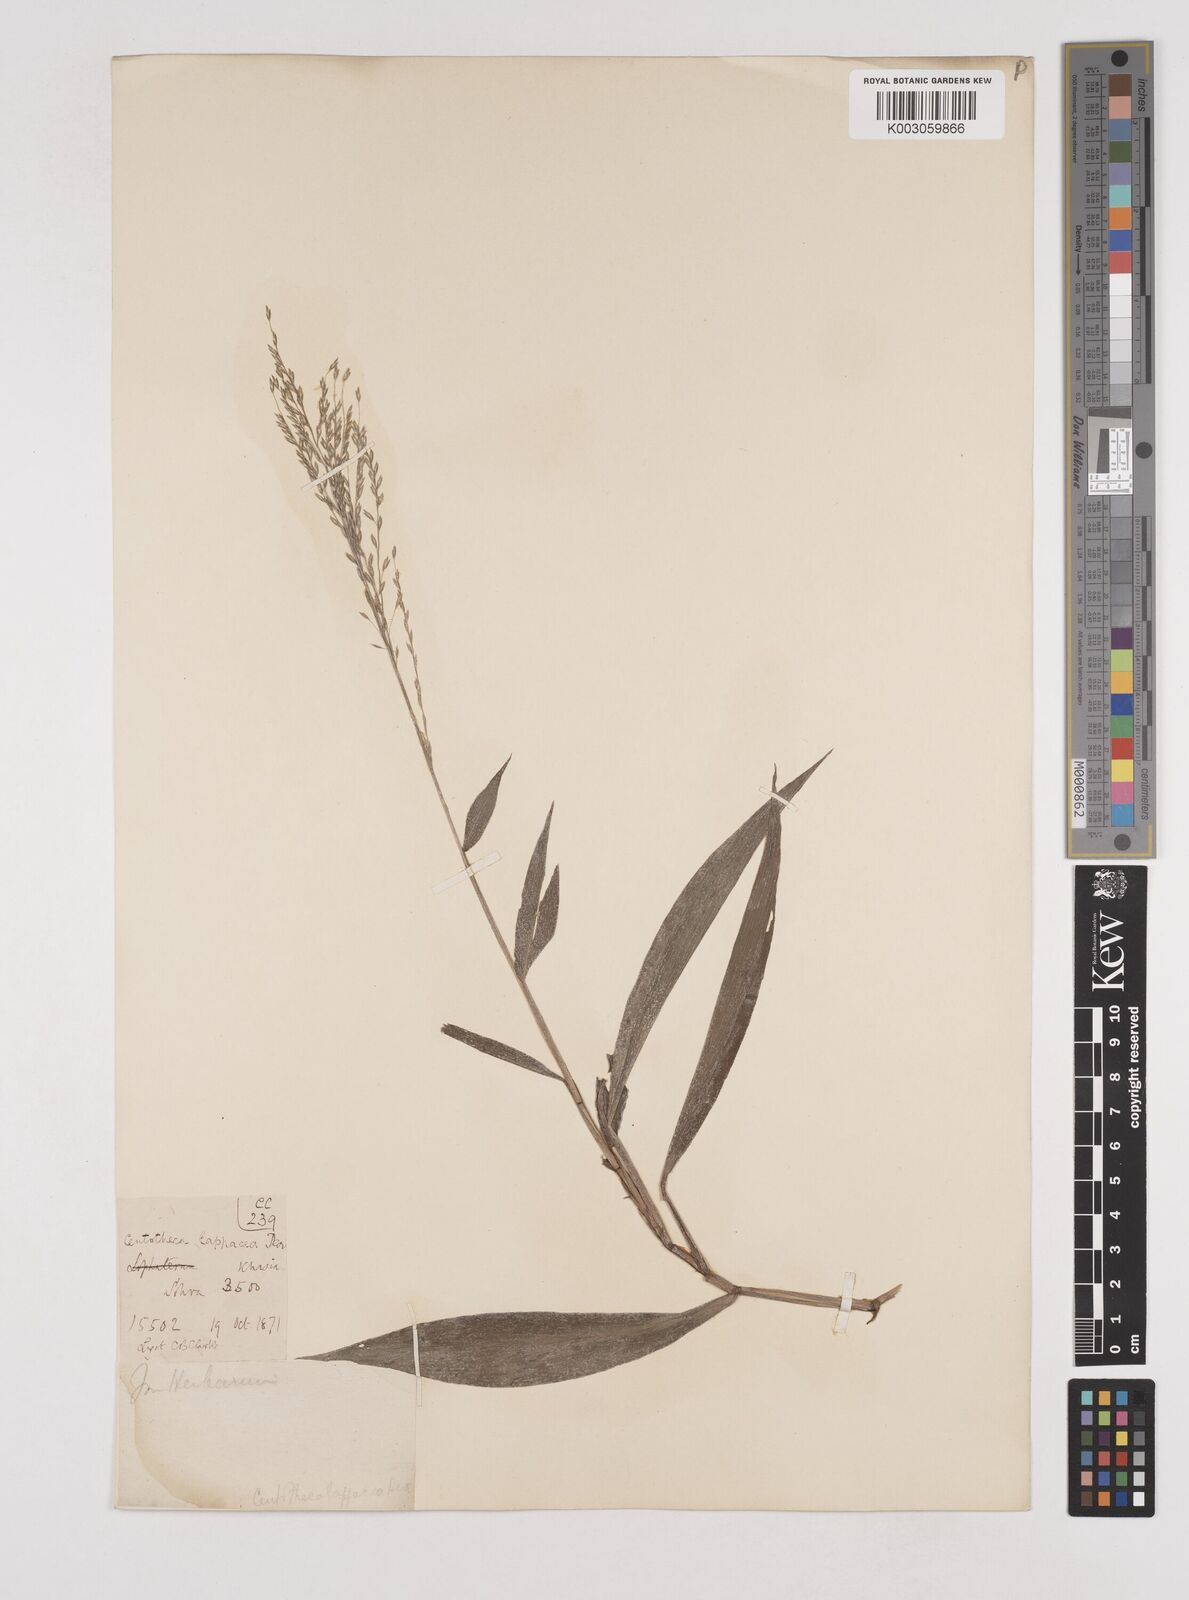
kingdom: Plantae
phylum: Tracheophyta
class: Liliopsida
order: Poales
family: Poaceae
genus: Centotheca
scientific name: Centotheca lappacea
